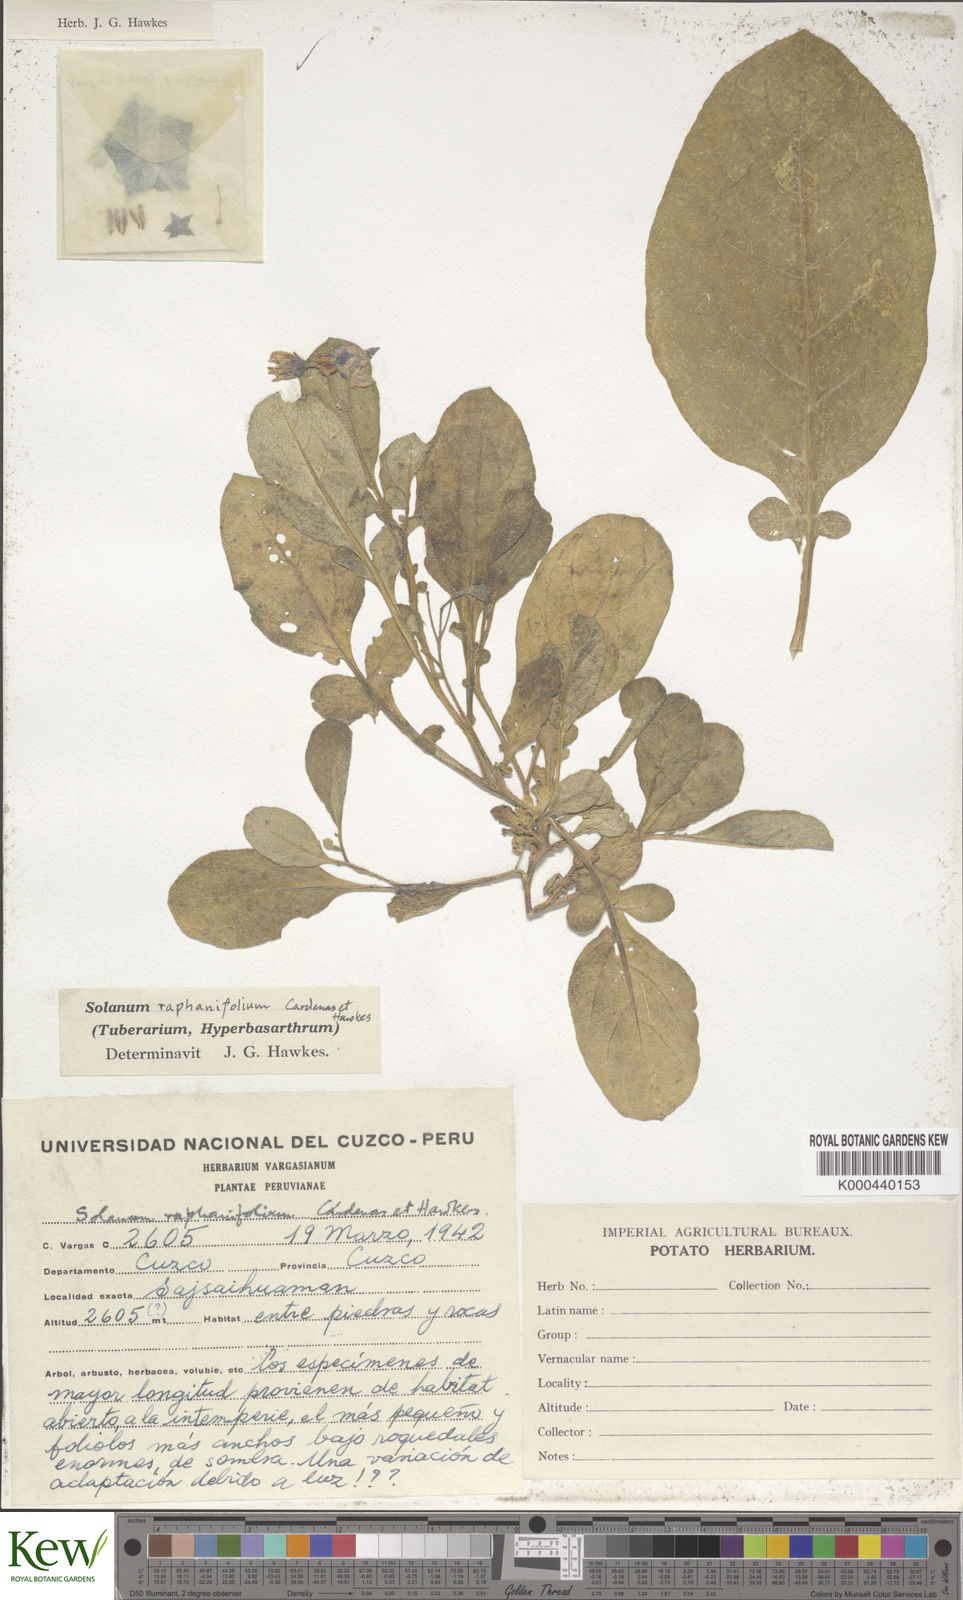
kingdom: Plantae
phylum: Tracheophyta
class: Magnoliopsida
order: Solanales
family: Solanaceae
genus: Solanum
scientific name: Solanum raphanifolium
